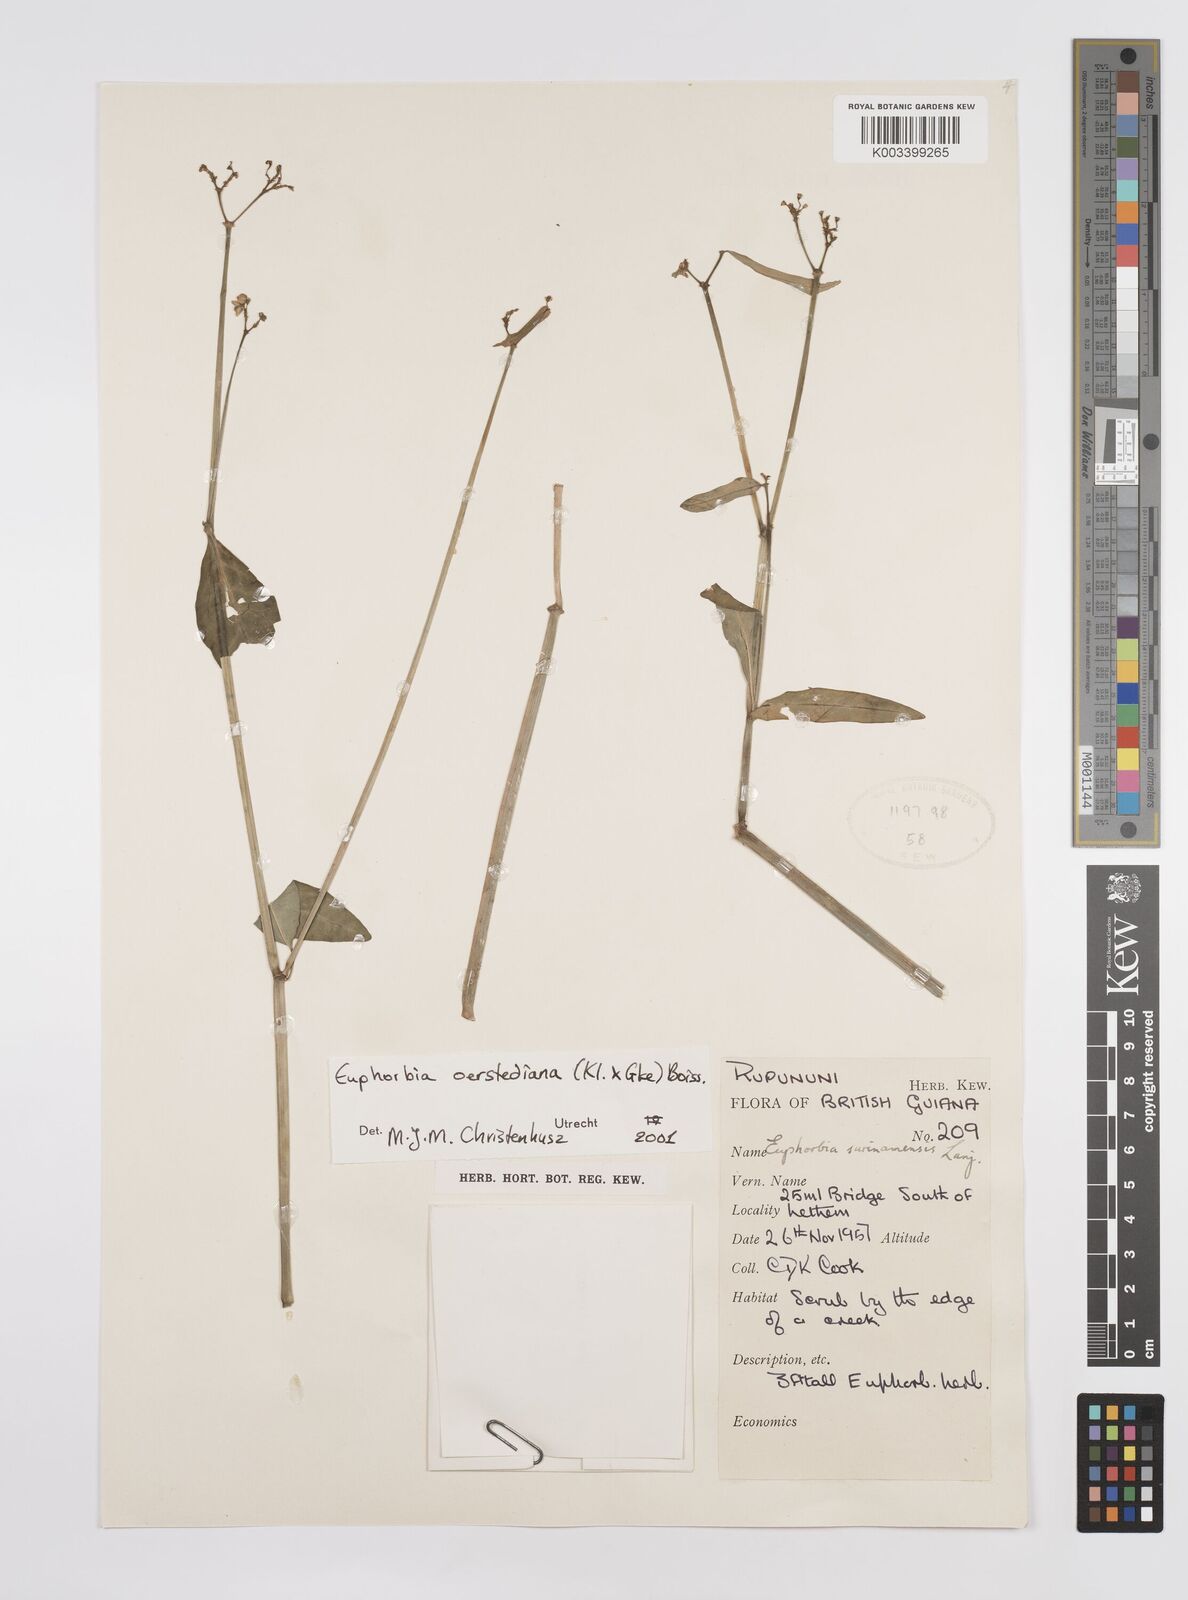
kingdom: Plantae
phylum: Tracheophyta
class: Magnoliopsida
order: Malpighiales
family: Euphorbiaceae
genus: Euphorbia
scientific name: Euphorbia oerstediana
